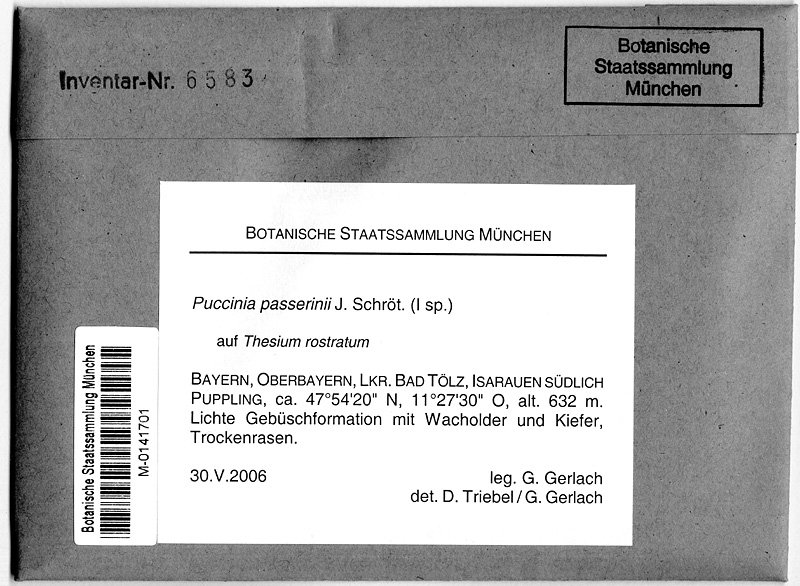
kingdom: Plantae
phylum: Tracheophyta
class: Magnoliopsida
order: Santalales
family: Thesiaceae
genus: Thesium
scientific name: Thesium rostratum
